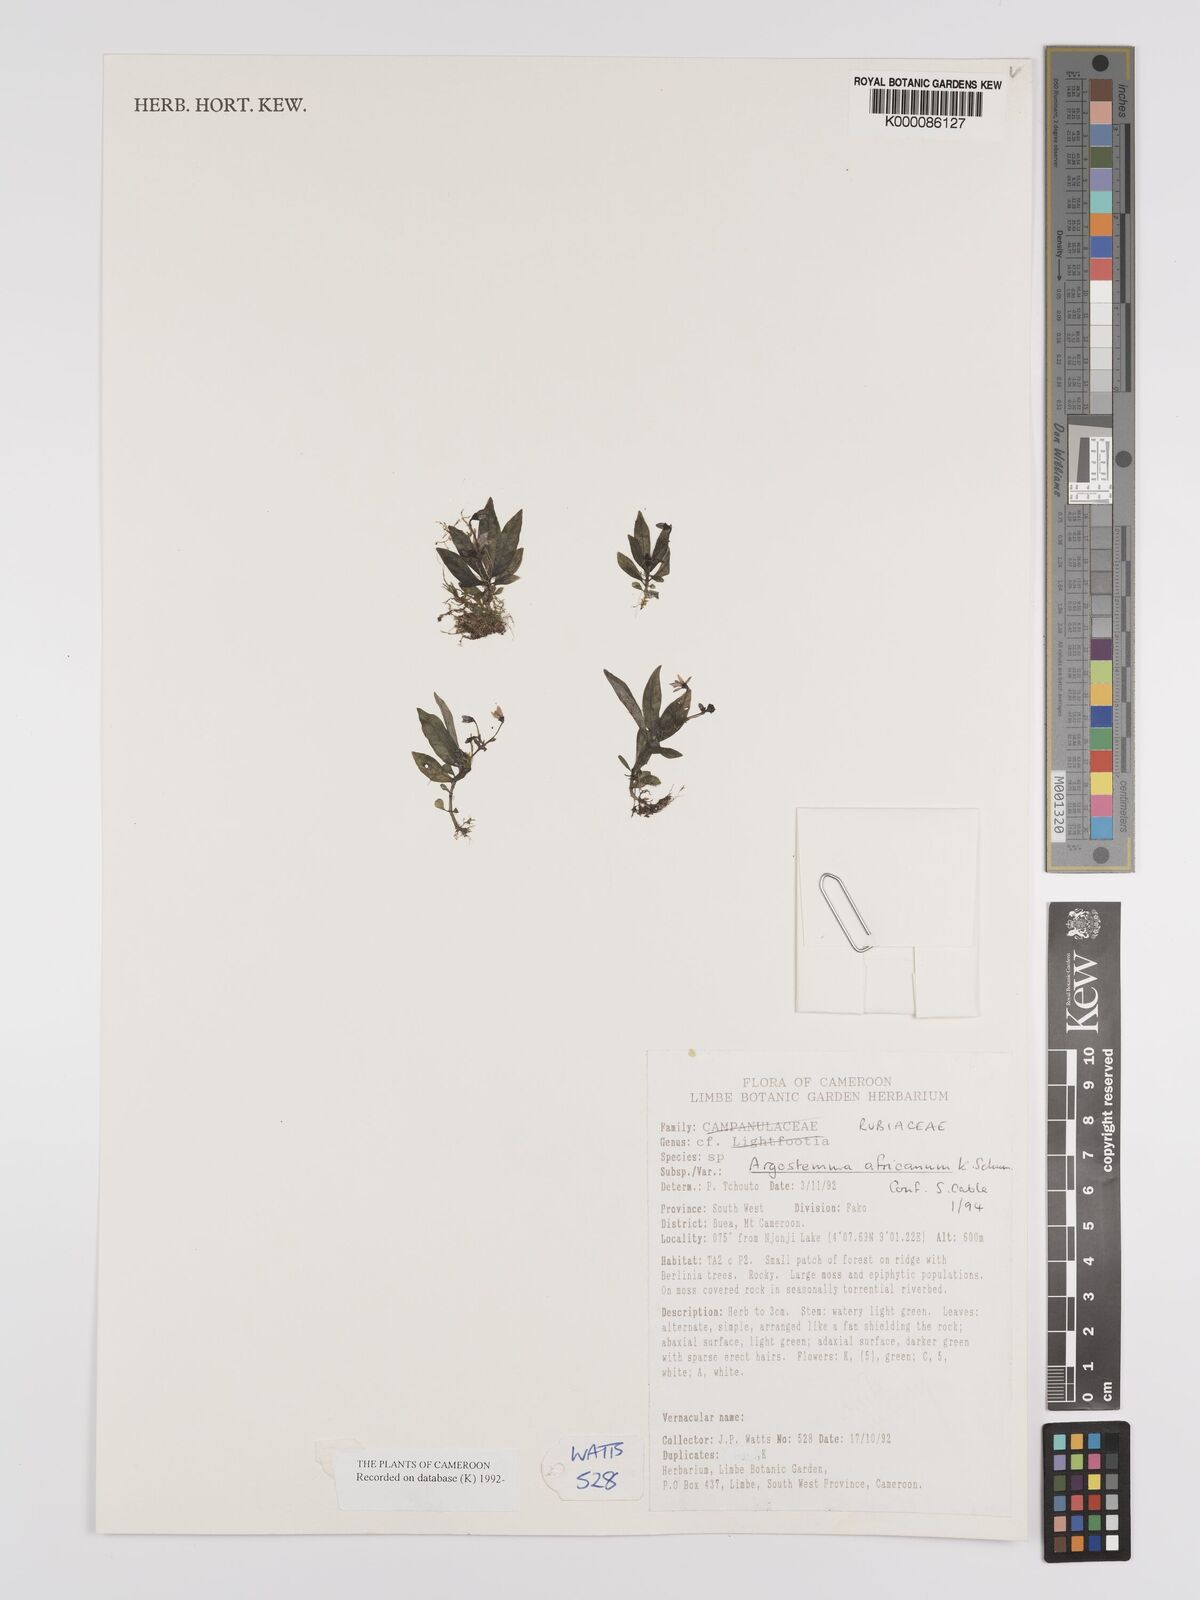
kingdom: Plantae
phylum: Tracheophyta
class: Magnoliopsida
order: Gentianales
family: Rubiaceae
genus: Argostemma
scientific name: Argostemma africanum
